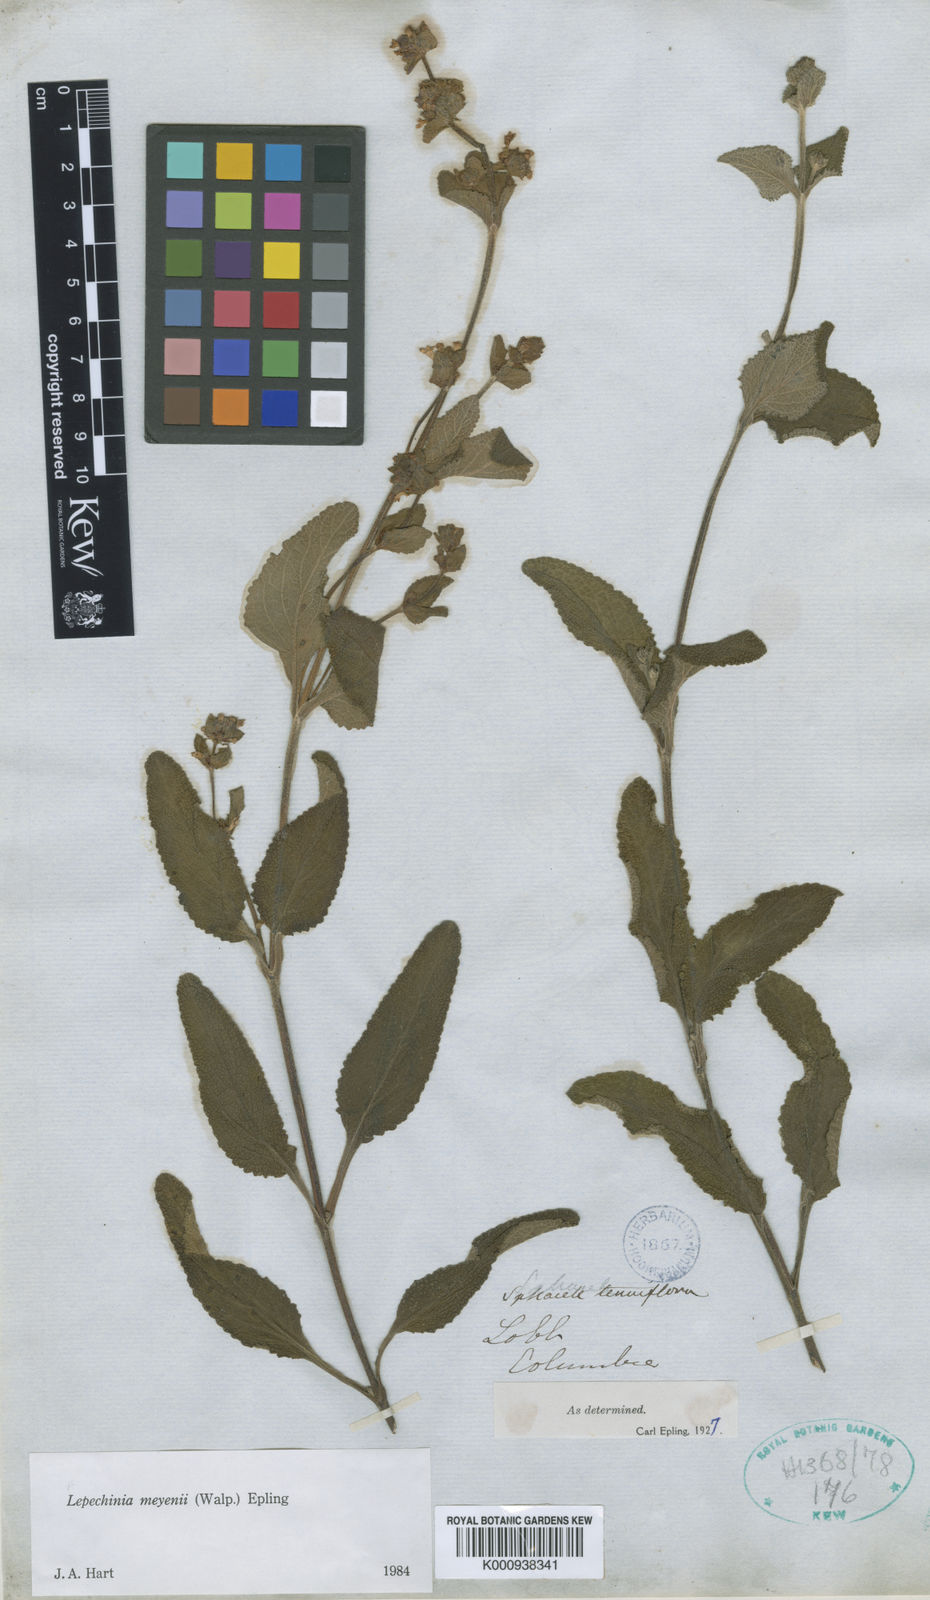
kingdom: Plantae
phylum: Tracheophyta
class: Magnoliopsida
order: Lamiales
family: Lamiaceae
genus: Lepechinia
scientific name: Lepechinia meyenii
